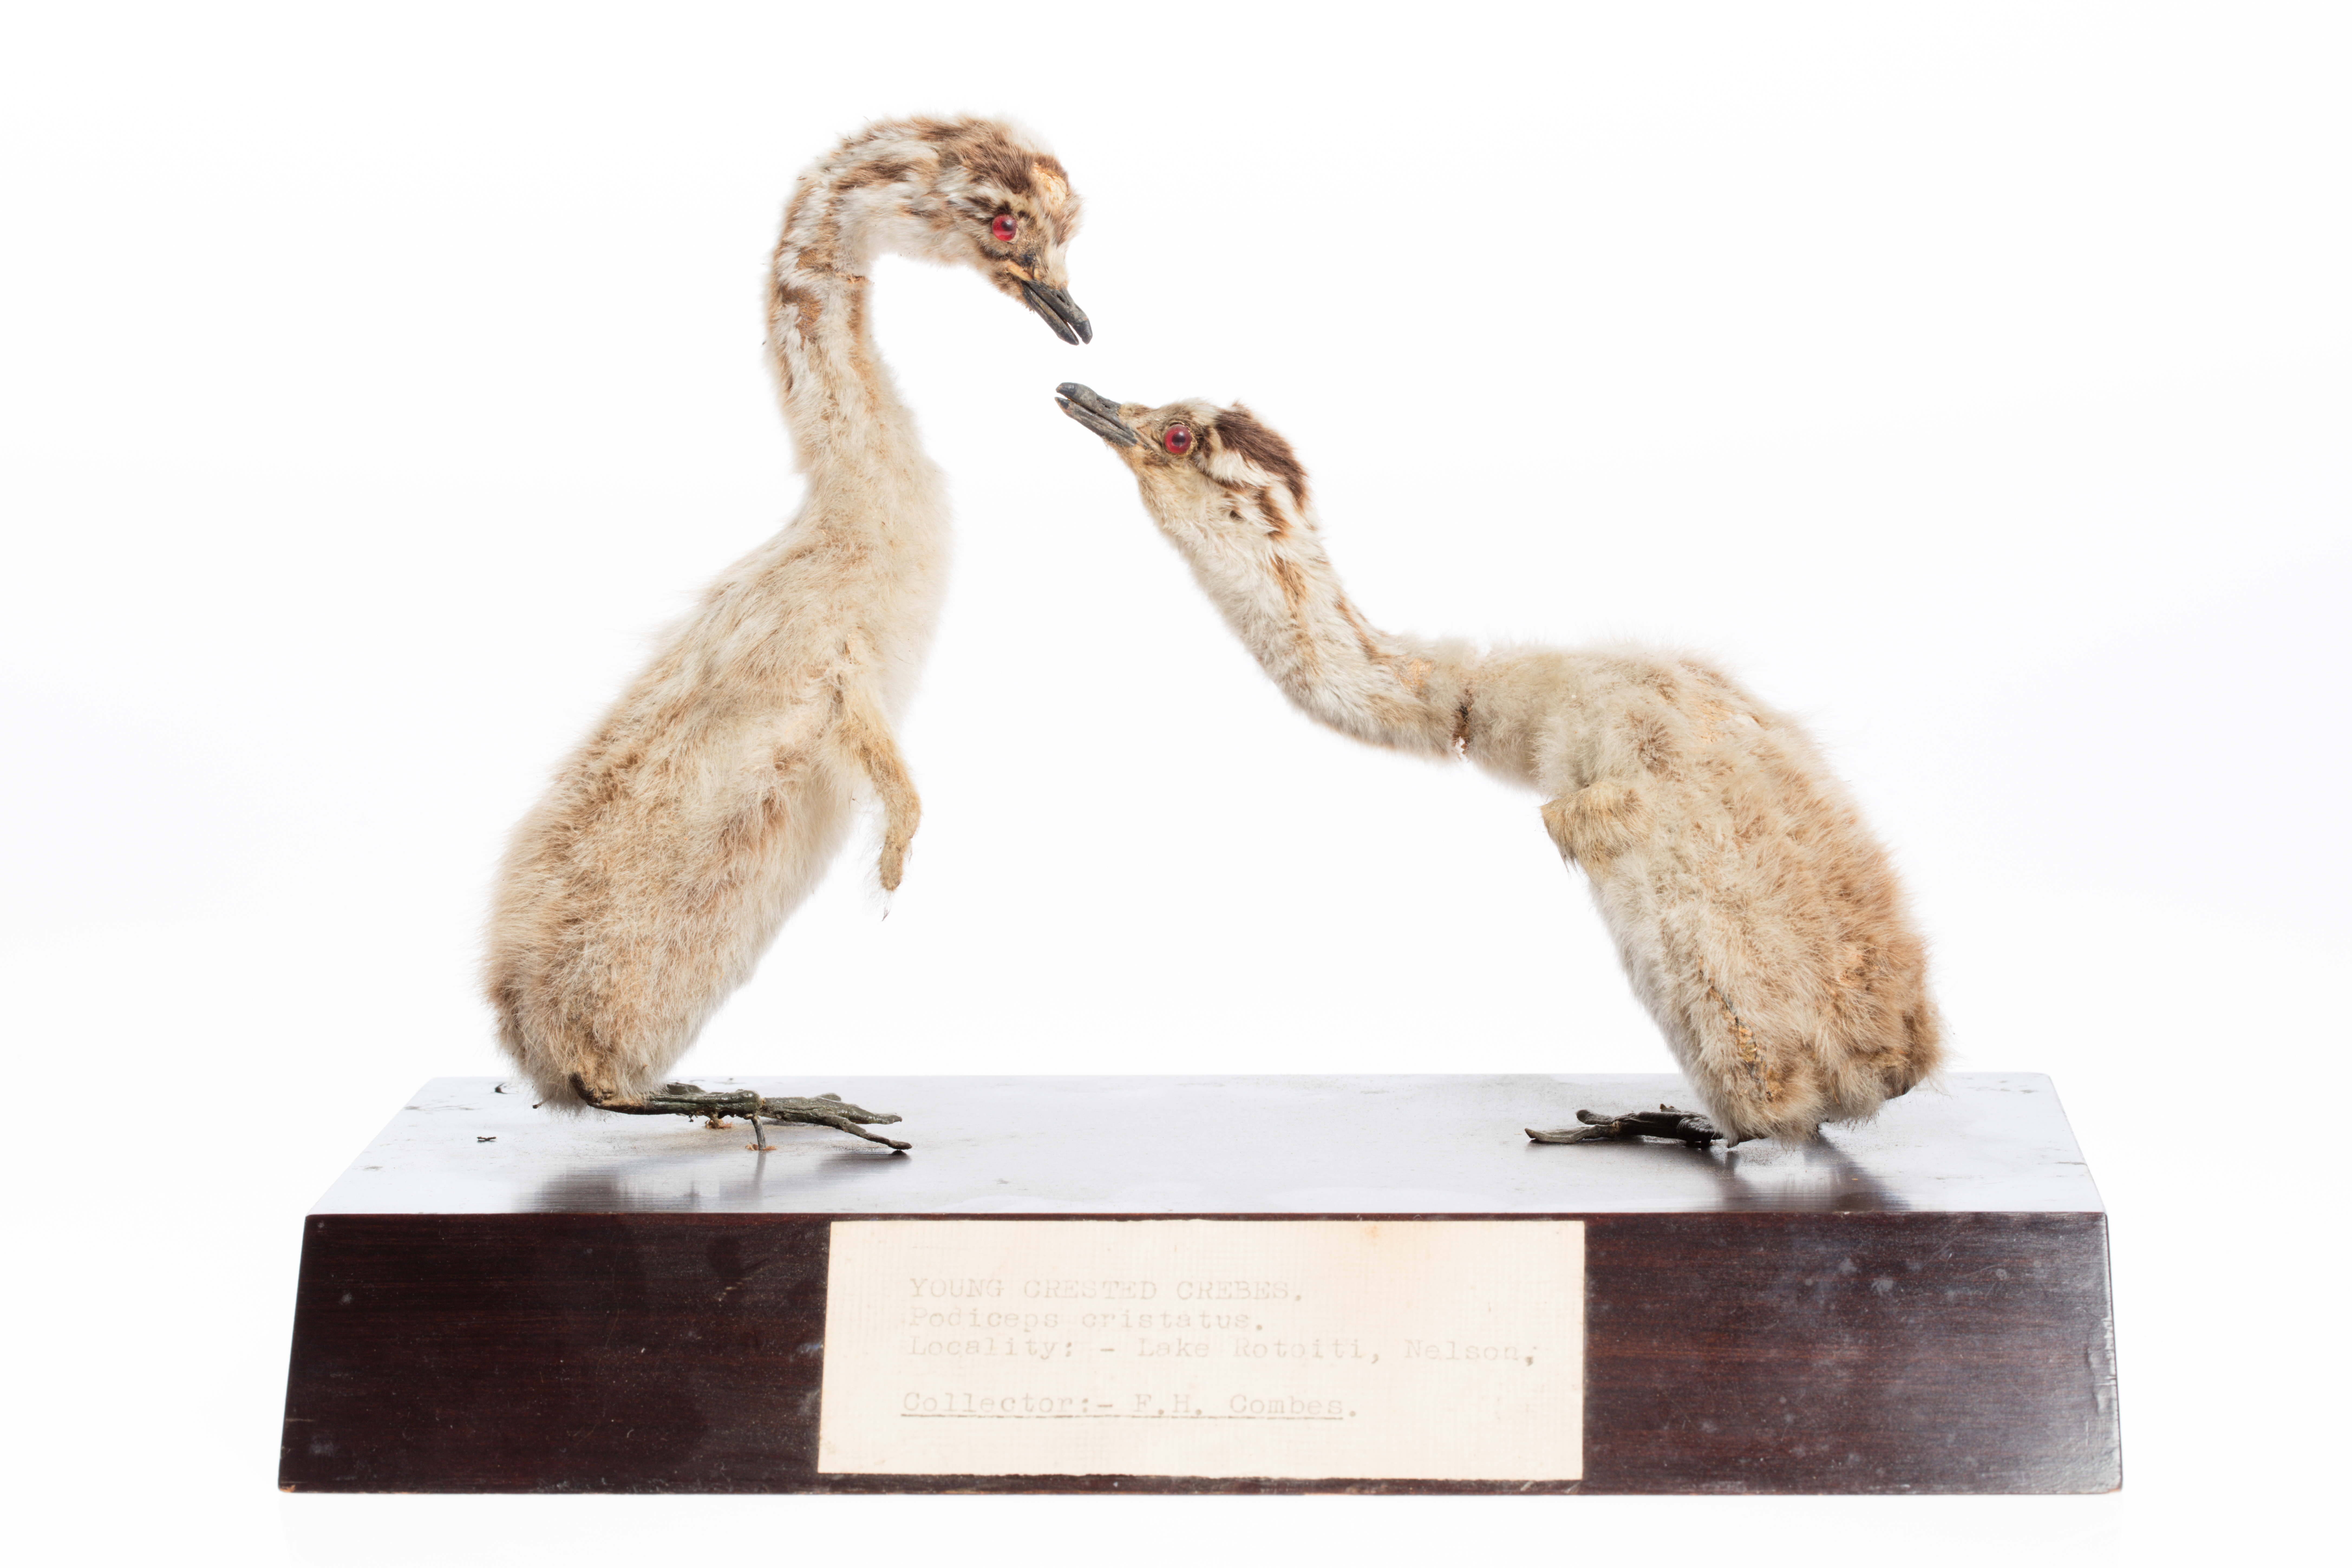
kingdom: Animalia
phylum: Chordata
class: Aves
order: Podicipediformes
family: Podicipedidae
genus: Podiceps
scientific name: Podiceps cristatus
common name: Great crested grebe
